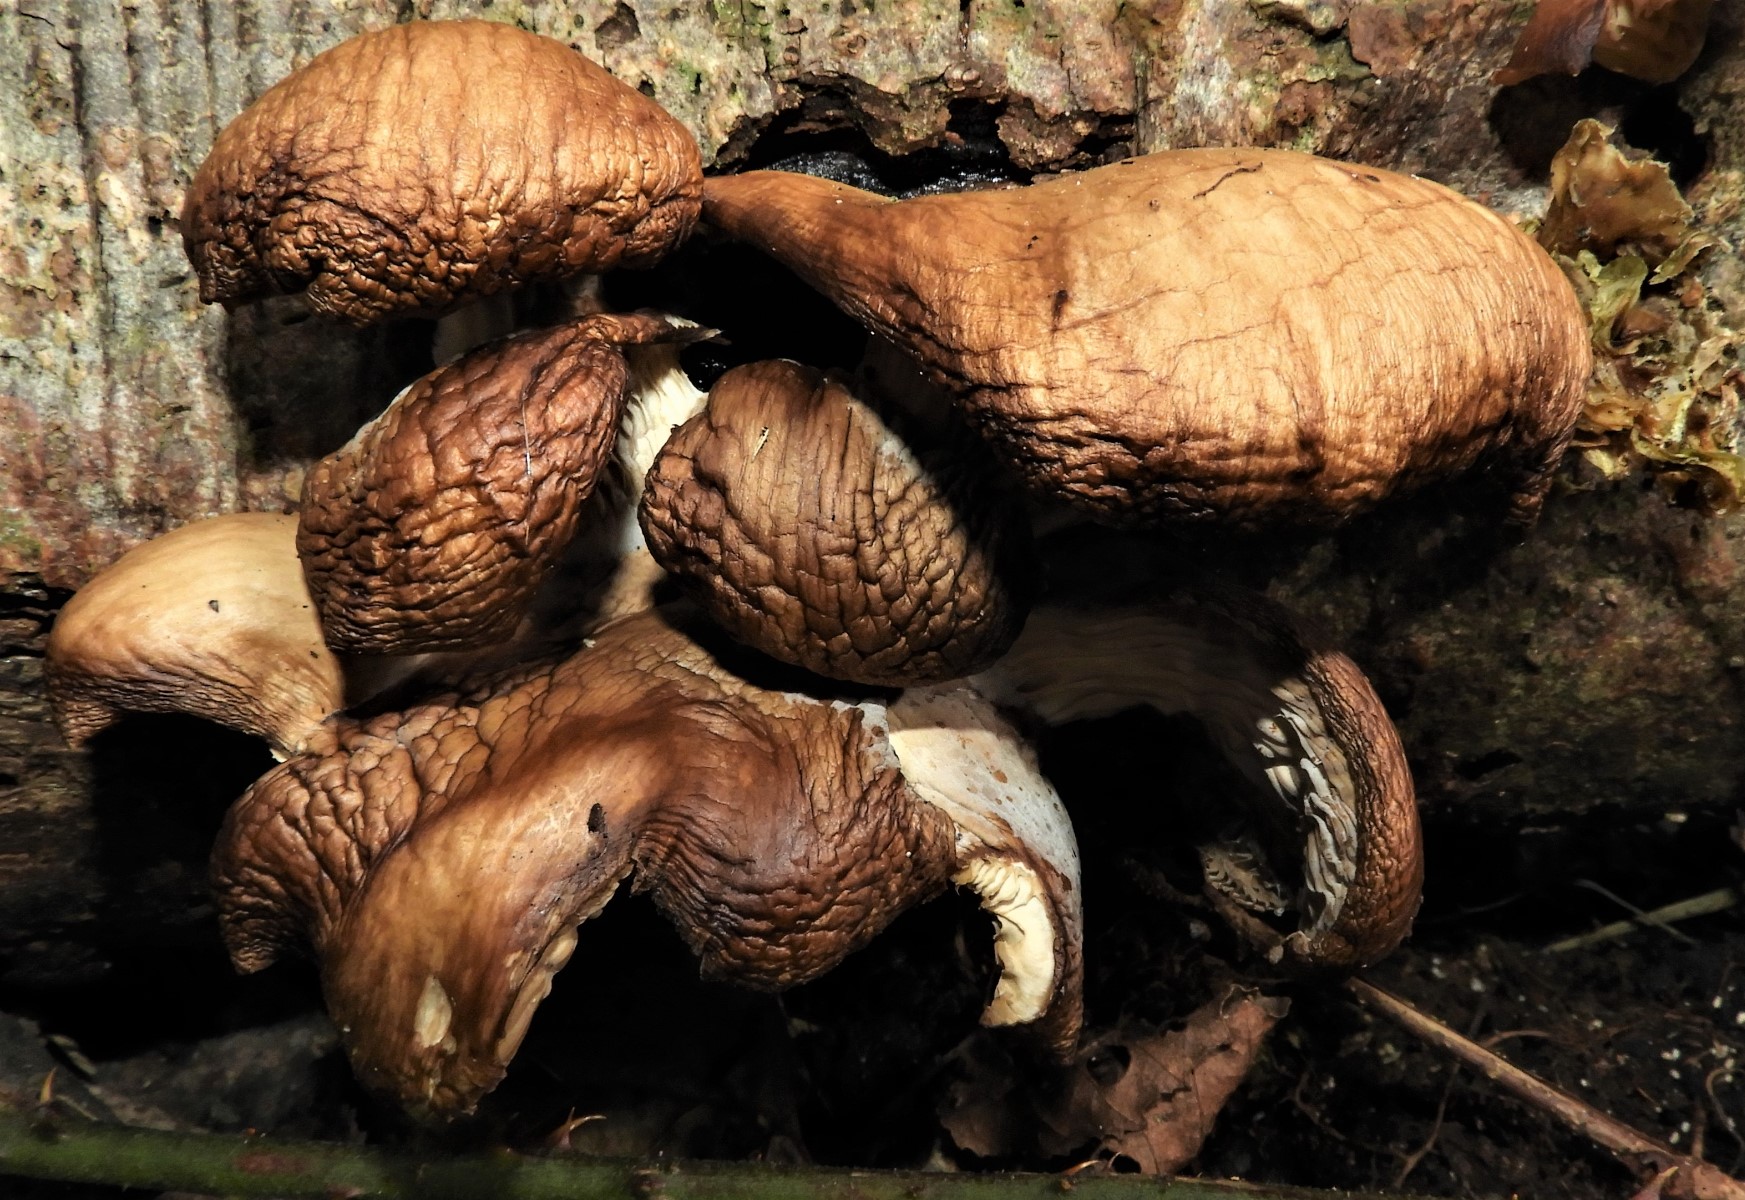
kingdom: Fungi
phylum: Basidiomycota
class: Agaricomycetes
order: Agaricales
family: Pleurotaceae
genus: Pleurotus
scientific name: Pleurotus ostreatus
